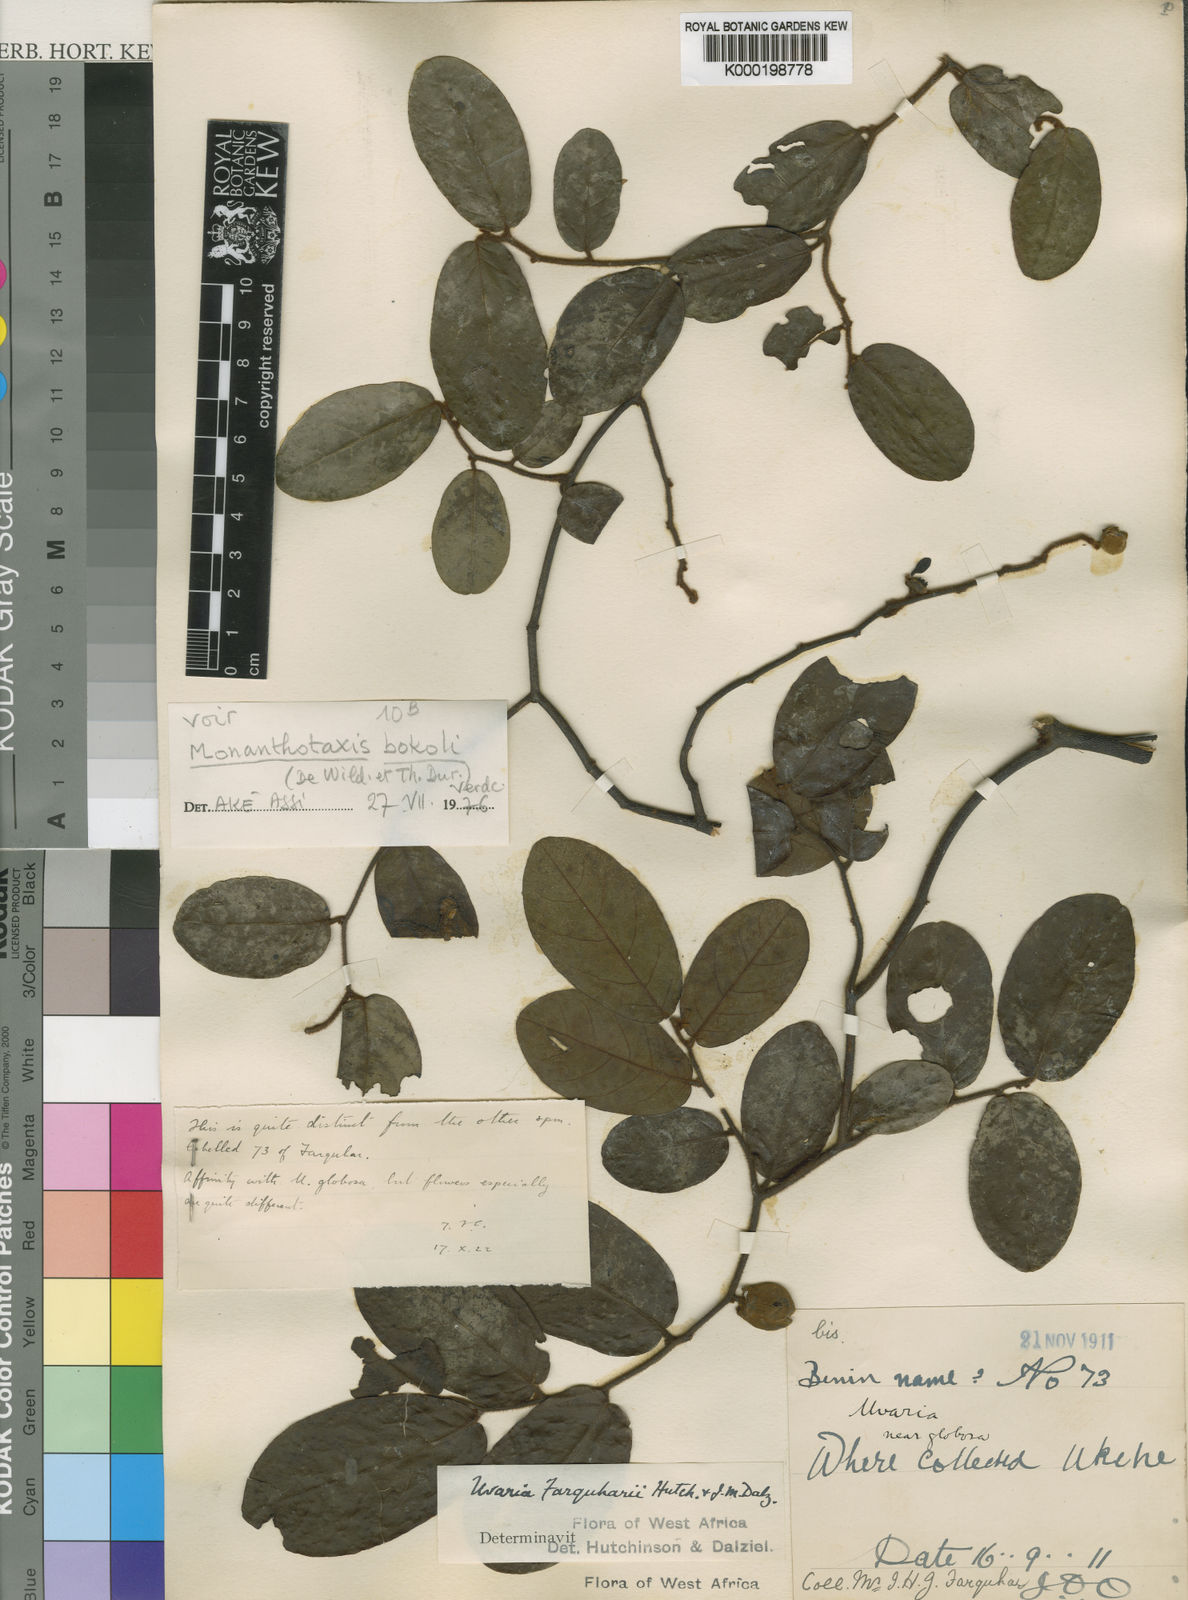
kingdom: Plantae
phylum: Tracheophyta
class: Magnoliopsida
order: Magnoliales
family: Annonaceae
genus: Uvaria
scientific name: Uvaria farquharii
